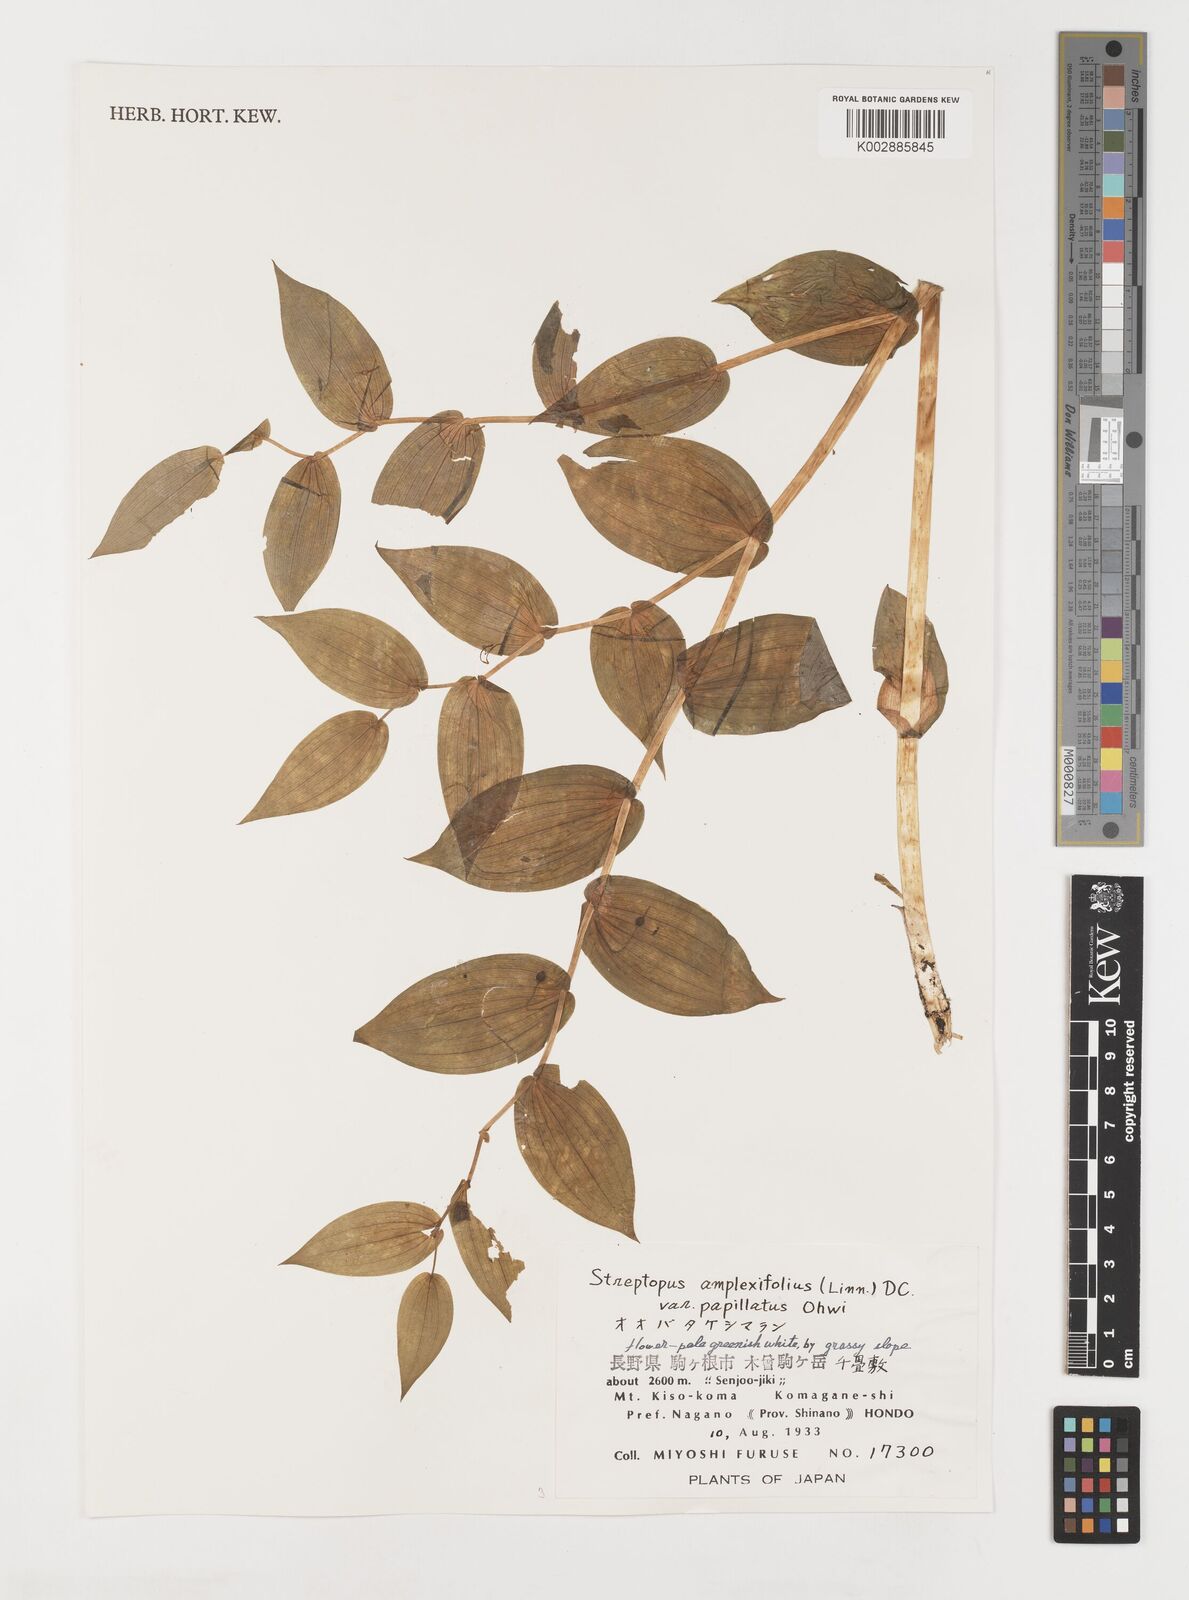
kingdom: Plantae
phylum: Tracheophyta
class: Liliopsida
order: Liliales
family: Liliaceae
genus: Streptopus
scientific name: Streptopus amplexifolius
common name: Clasp twisted stalk
